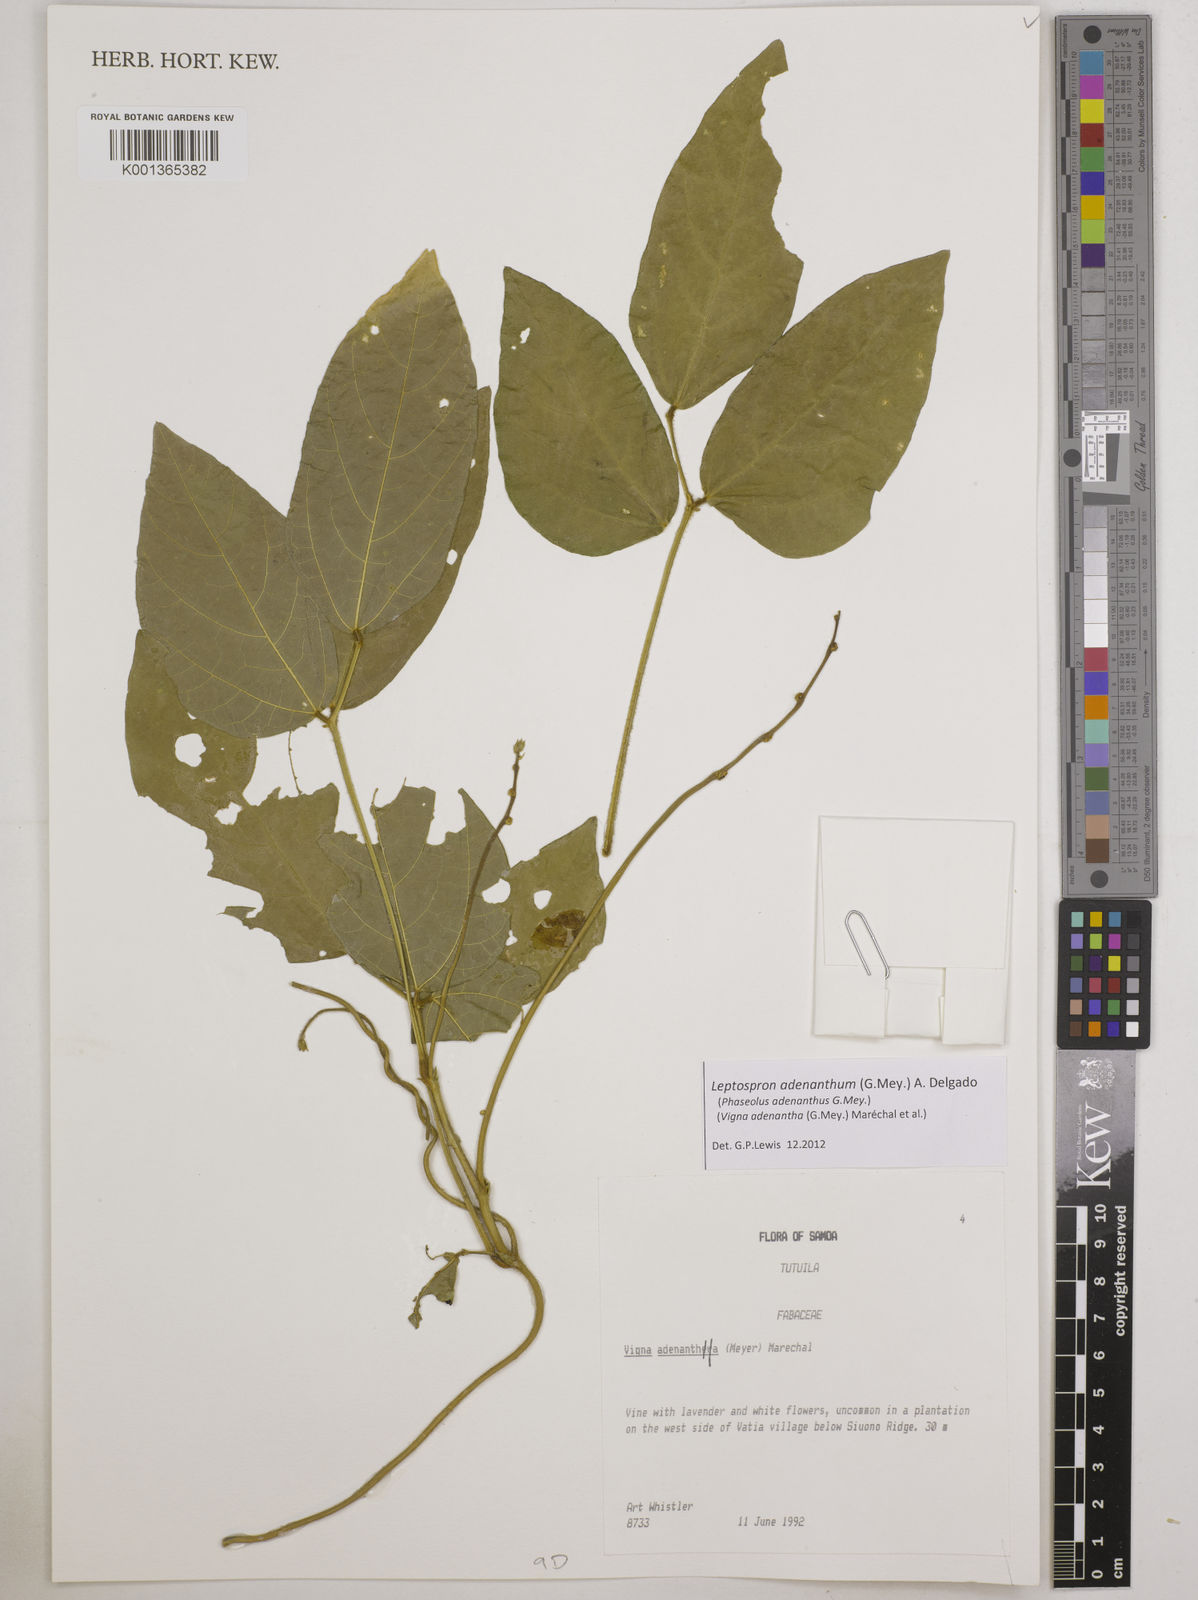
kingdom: Plantae
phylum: Tracheophyta
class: Magnoliopsida
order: Fabales
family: Fabaceae
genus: Leptospron
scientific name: Leptospron adenanthum
